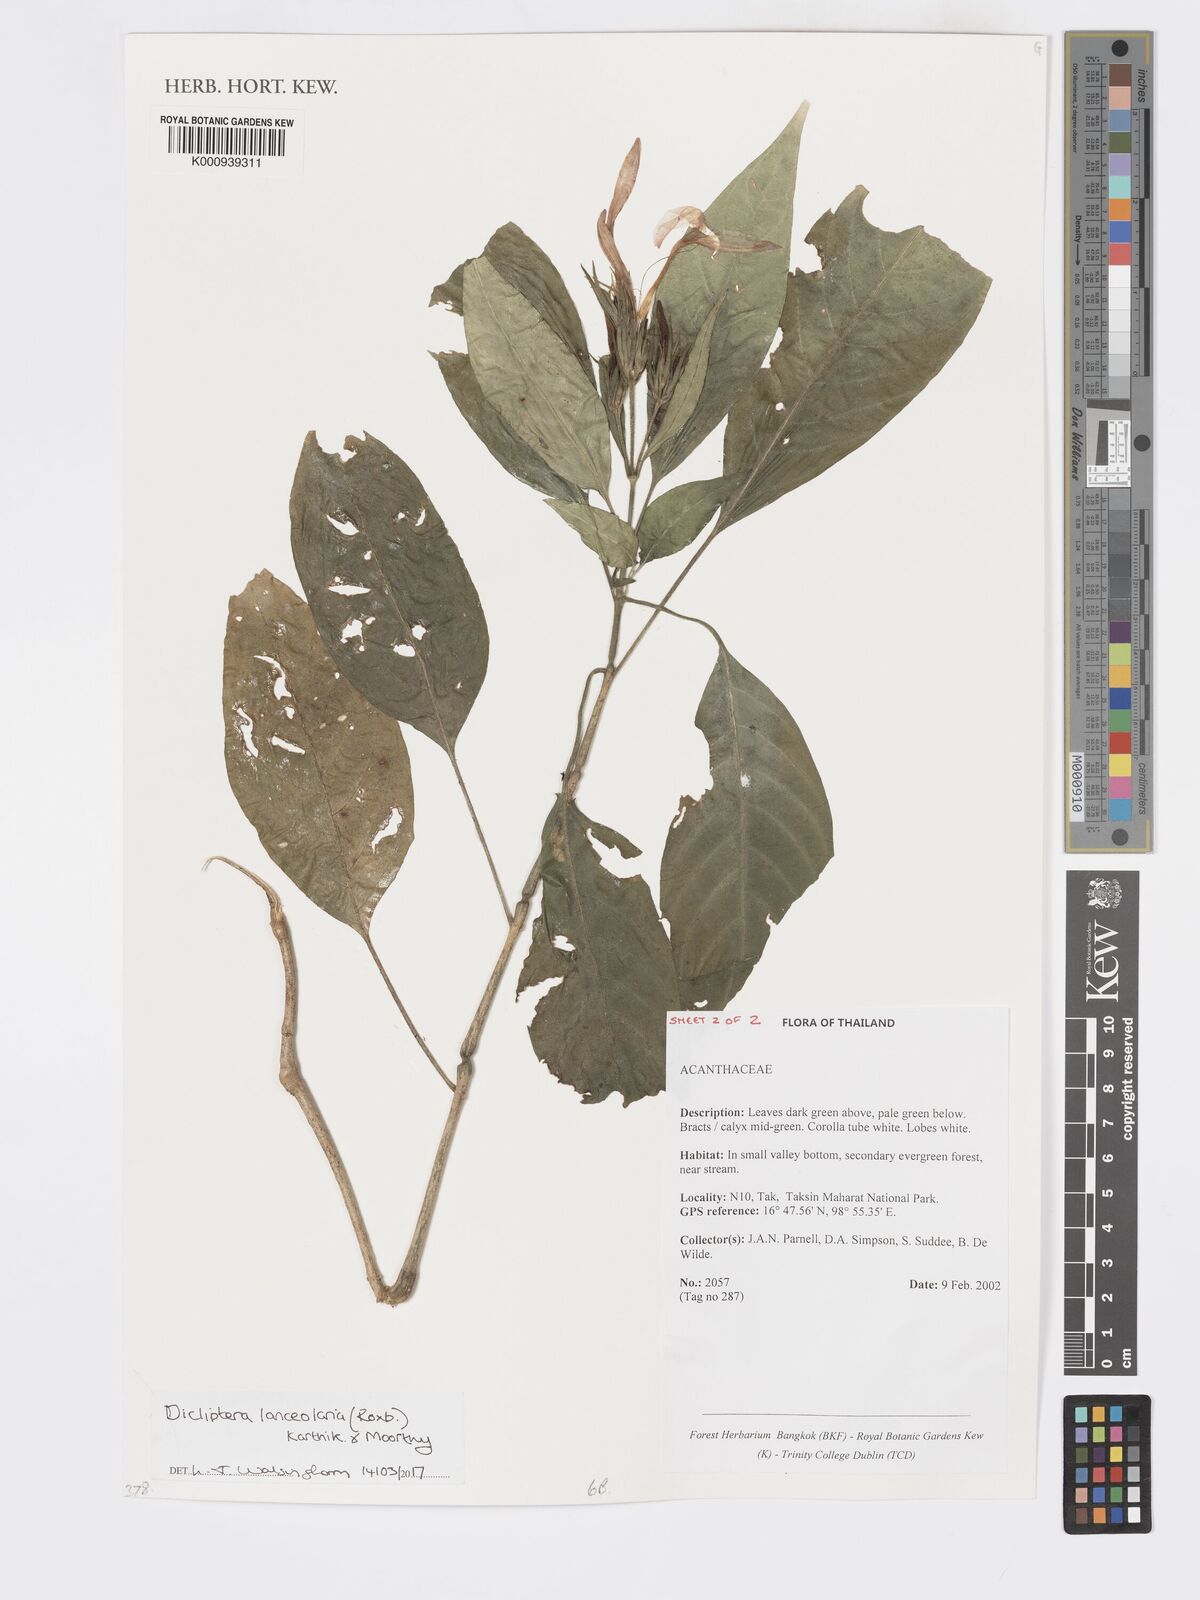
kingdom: Plantae
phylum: Tracheophyta
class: Magnoliopsida
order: Lamiales
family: Acanthaceae
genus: Dicliptera
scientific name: Dicliptera lanceolaria
